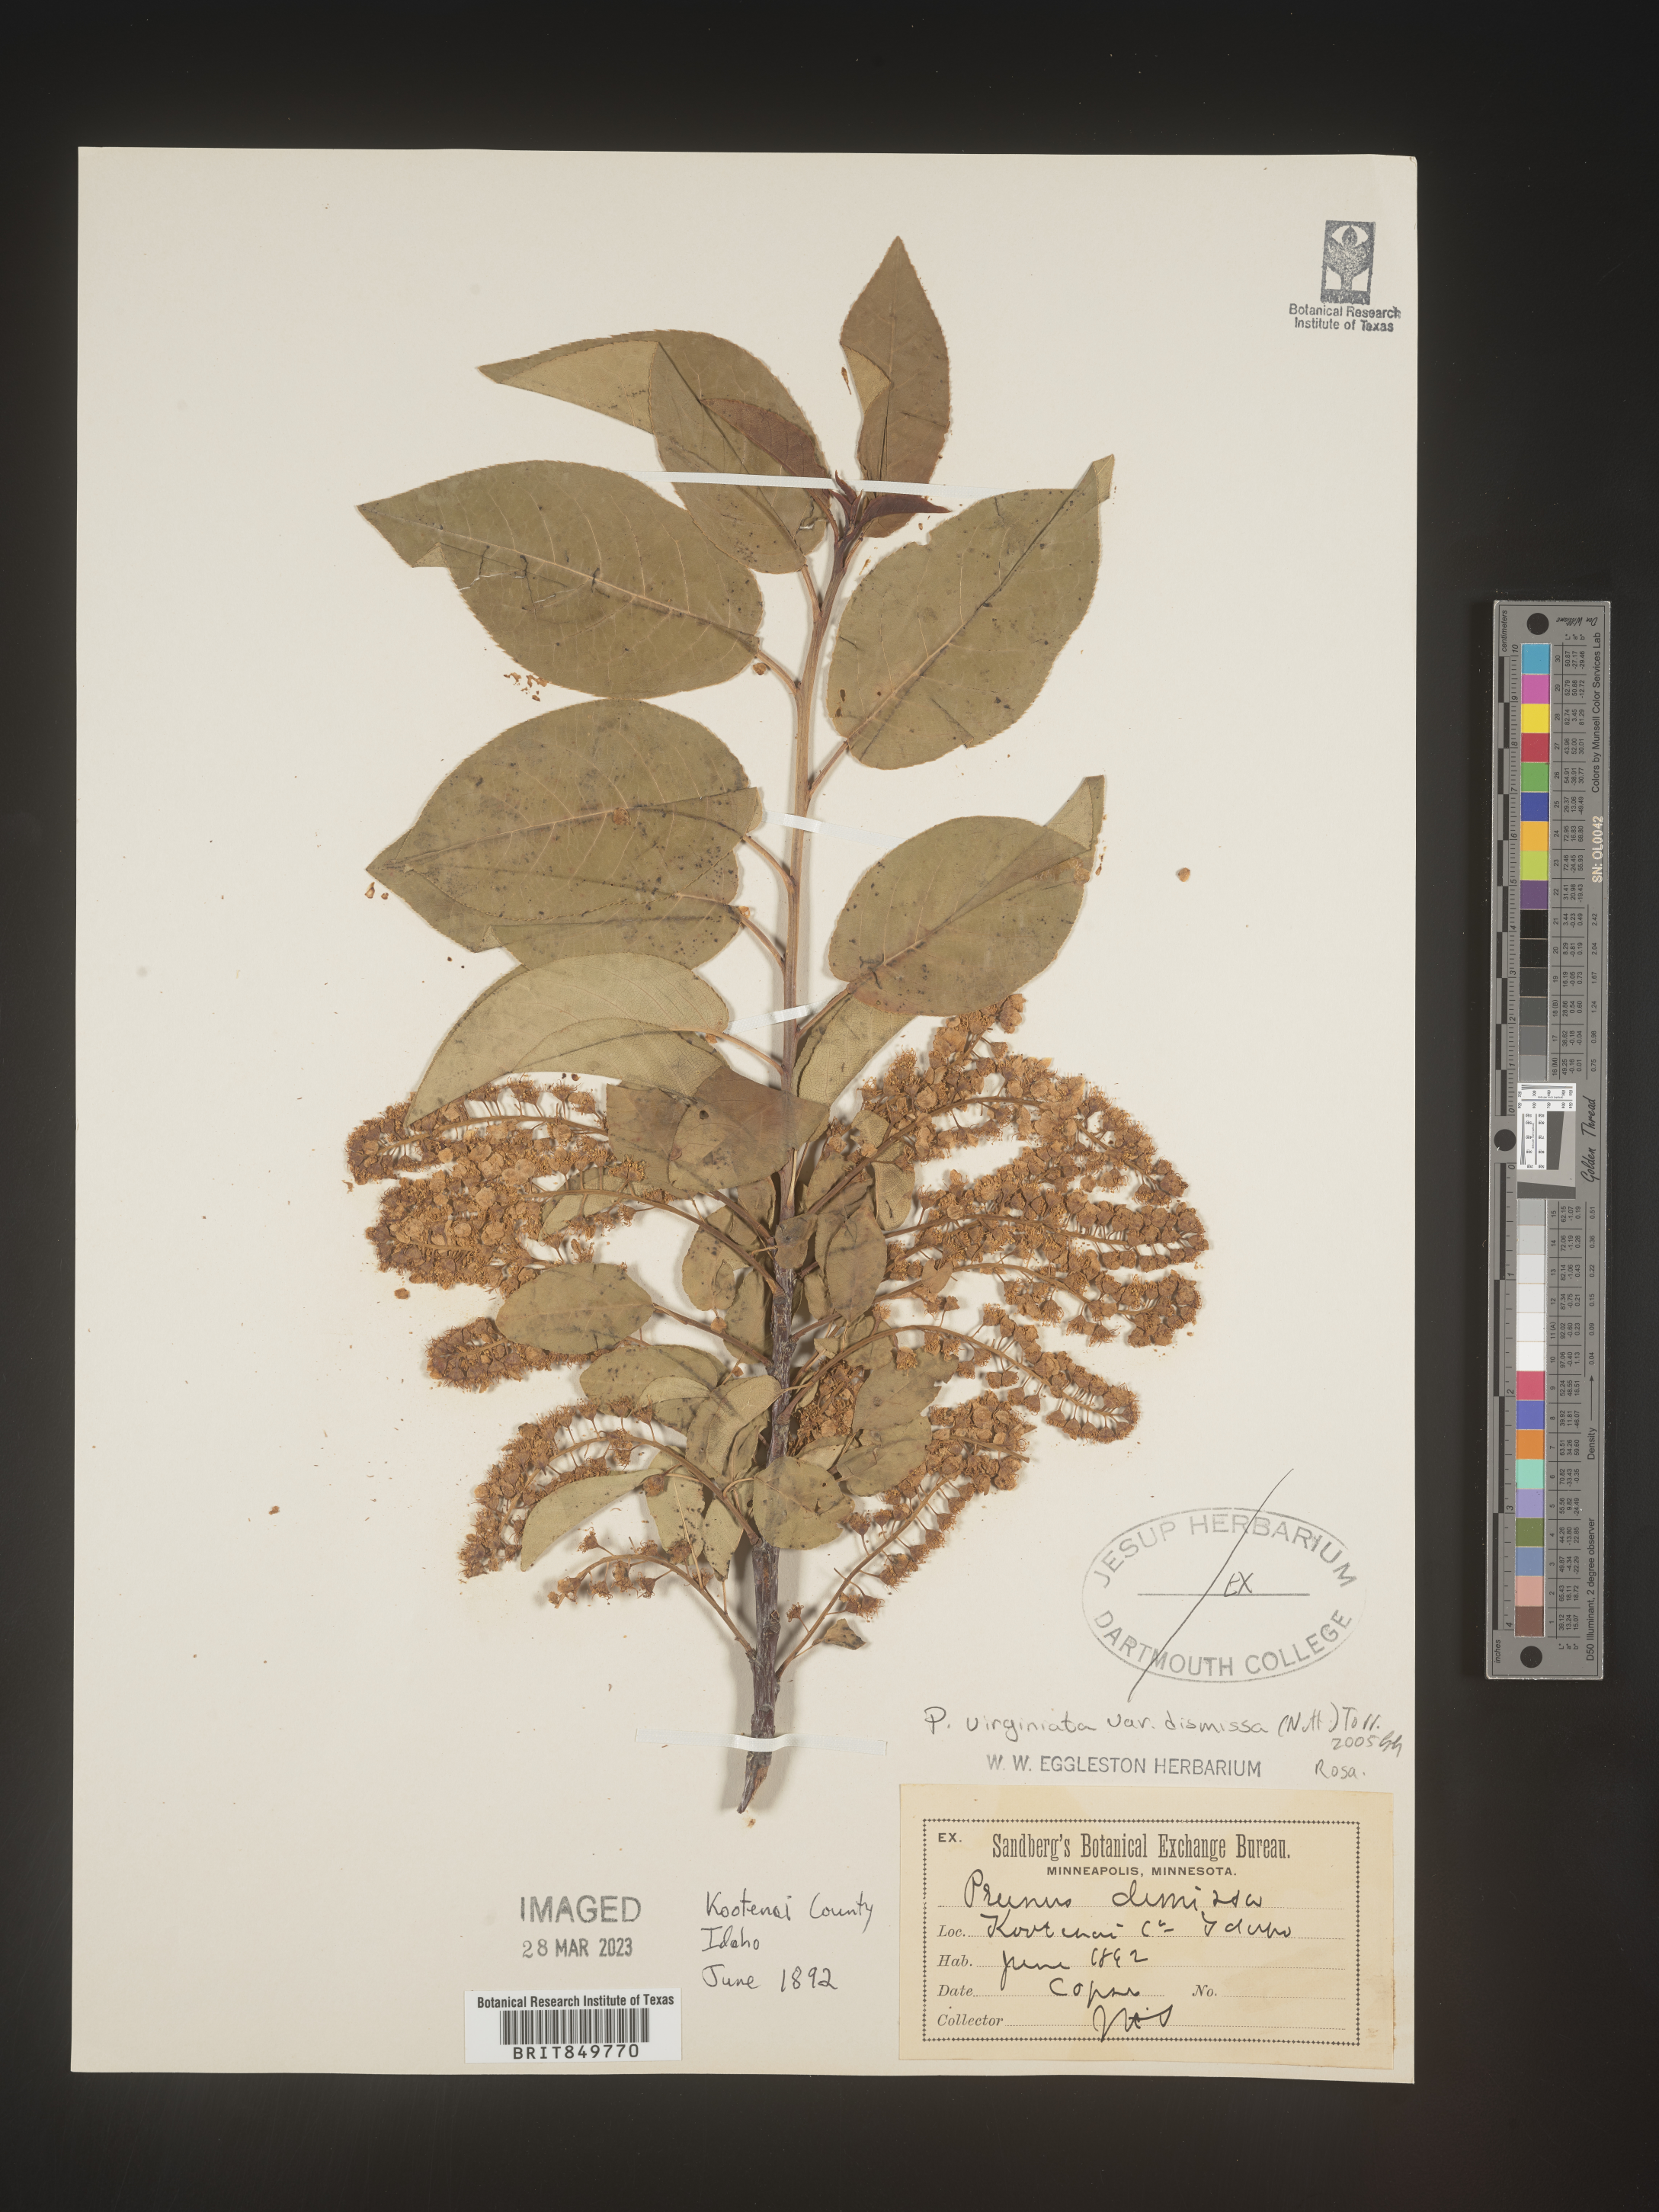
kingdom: Plantae
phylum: Tracheophyta
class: Magnoliopsida
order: Rosales
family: Rosaceae
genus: Prunus
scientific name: Prunus virginiana
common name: Chokecherry
